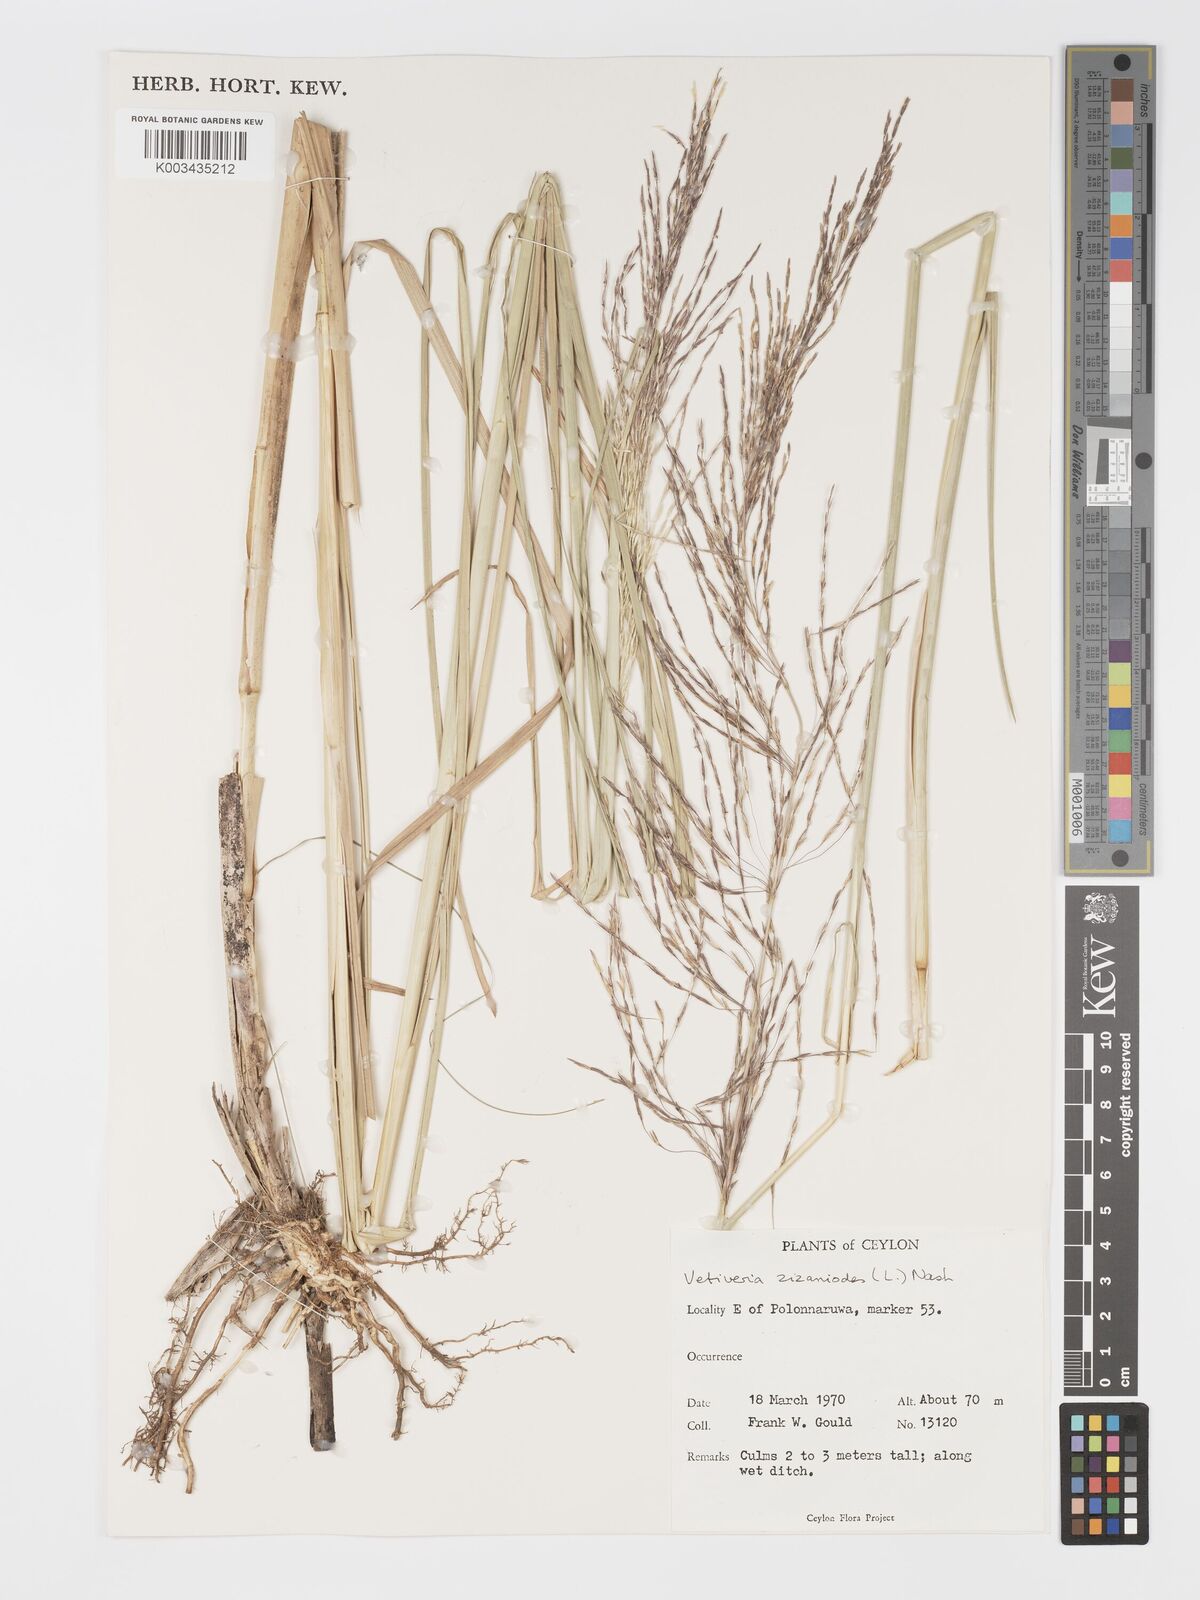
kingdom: Plantae
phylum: Tracheophyta
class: Liliopsida
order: Poales
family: Poaceae
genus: Chrysopogon
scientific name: Chrysopogon zizanioides
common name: False beardgrass
